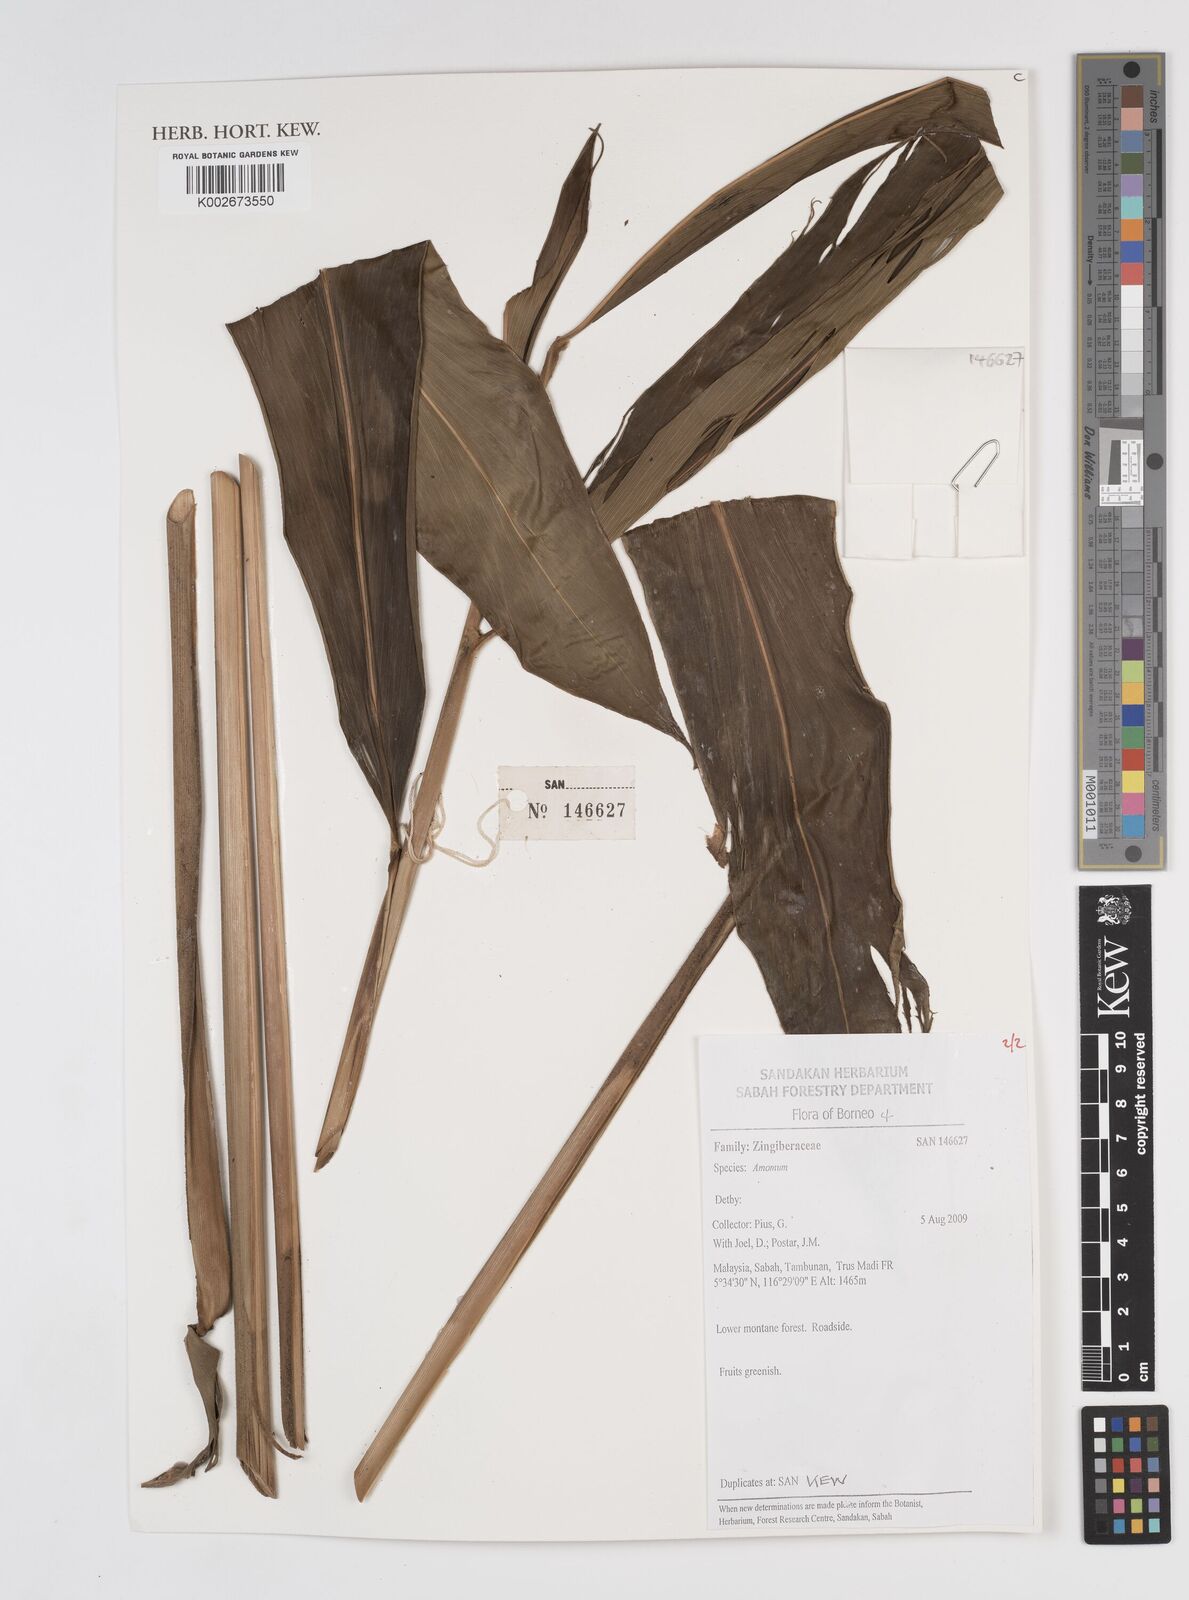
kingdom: Plantae
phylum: Tracheophyta
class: Liliopsida
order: Zingiberales
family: Zingiberaceae
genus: Amomum
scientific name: Amomum
